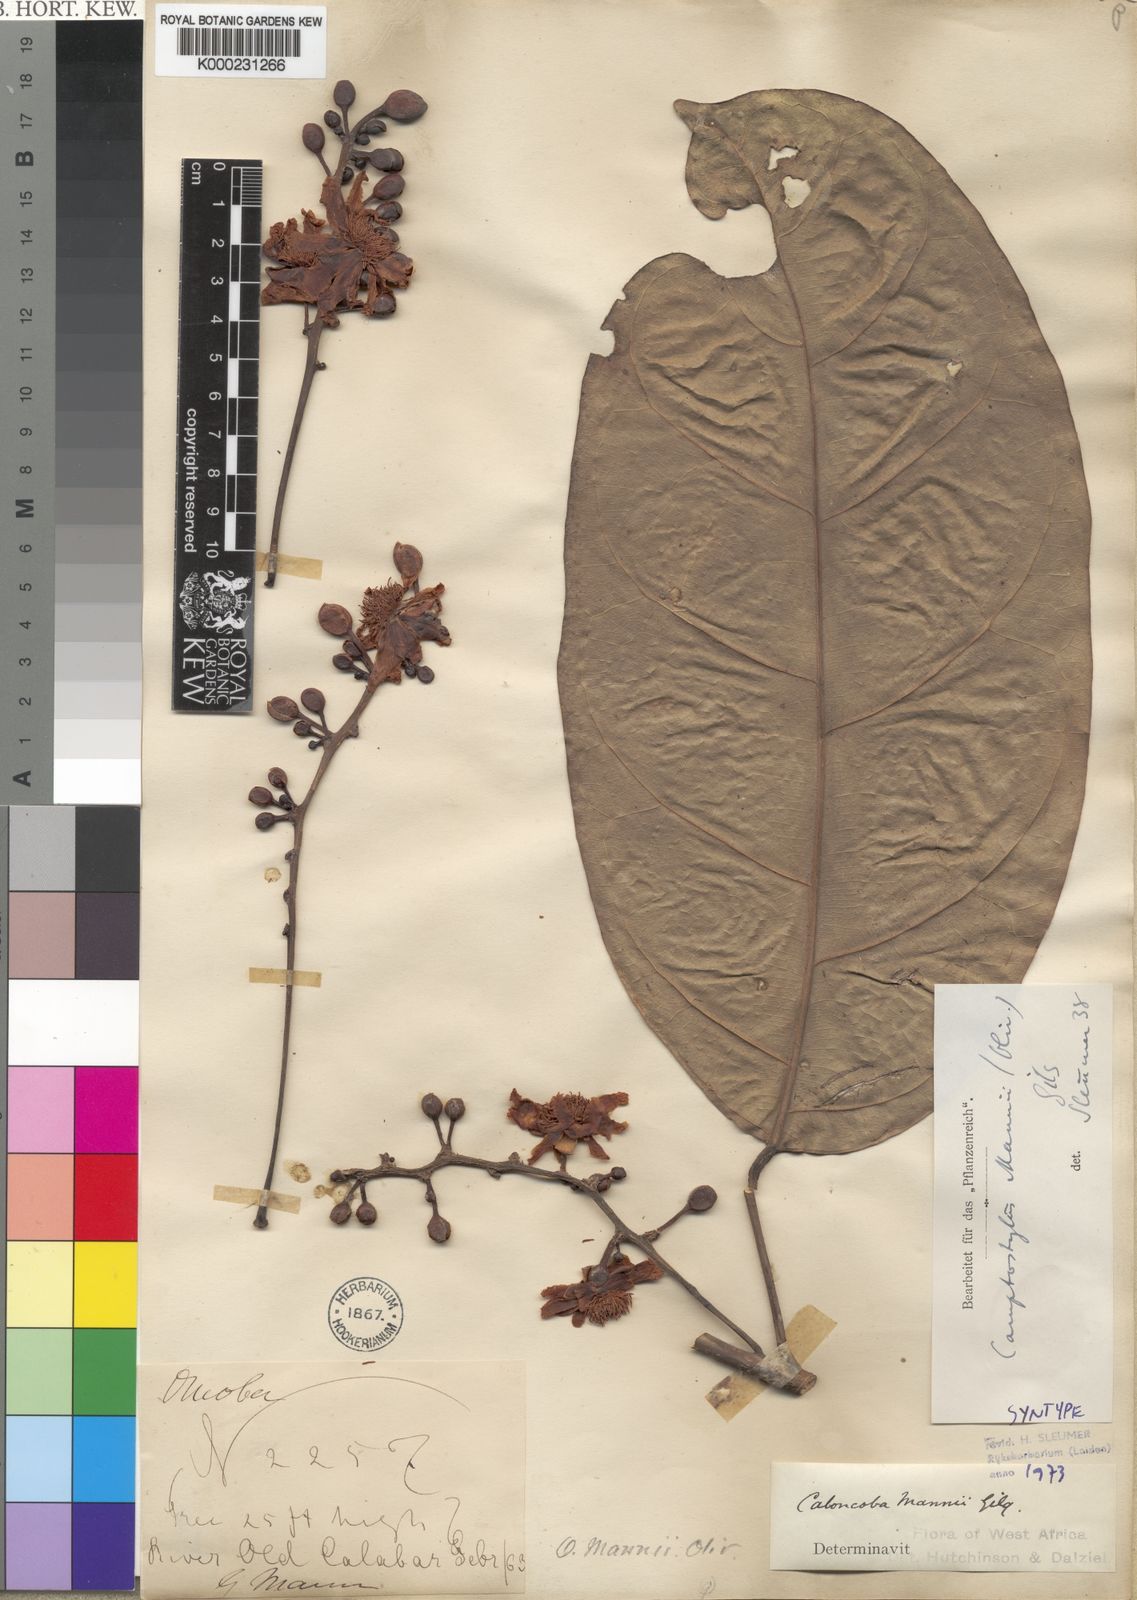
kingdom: Plantae
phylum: Tracheophyta
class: Magnoliopsida
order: Malpighiales
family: Achariaceae
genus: Camptostylus
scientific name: Camptostylus mannii
